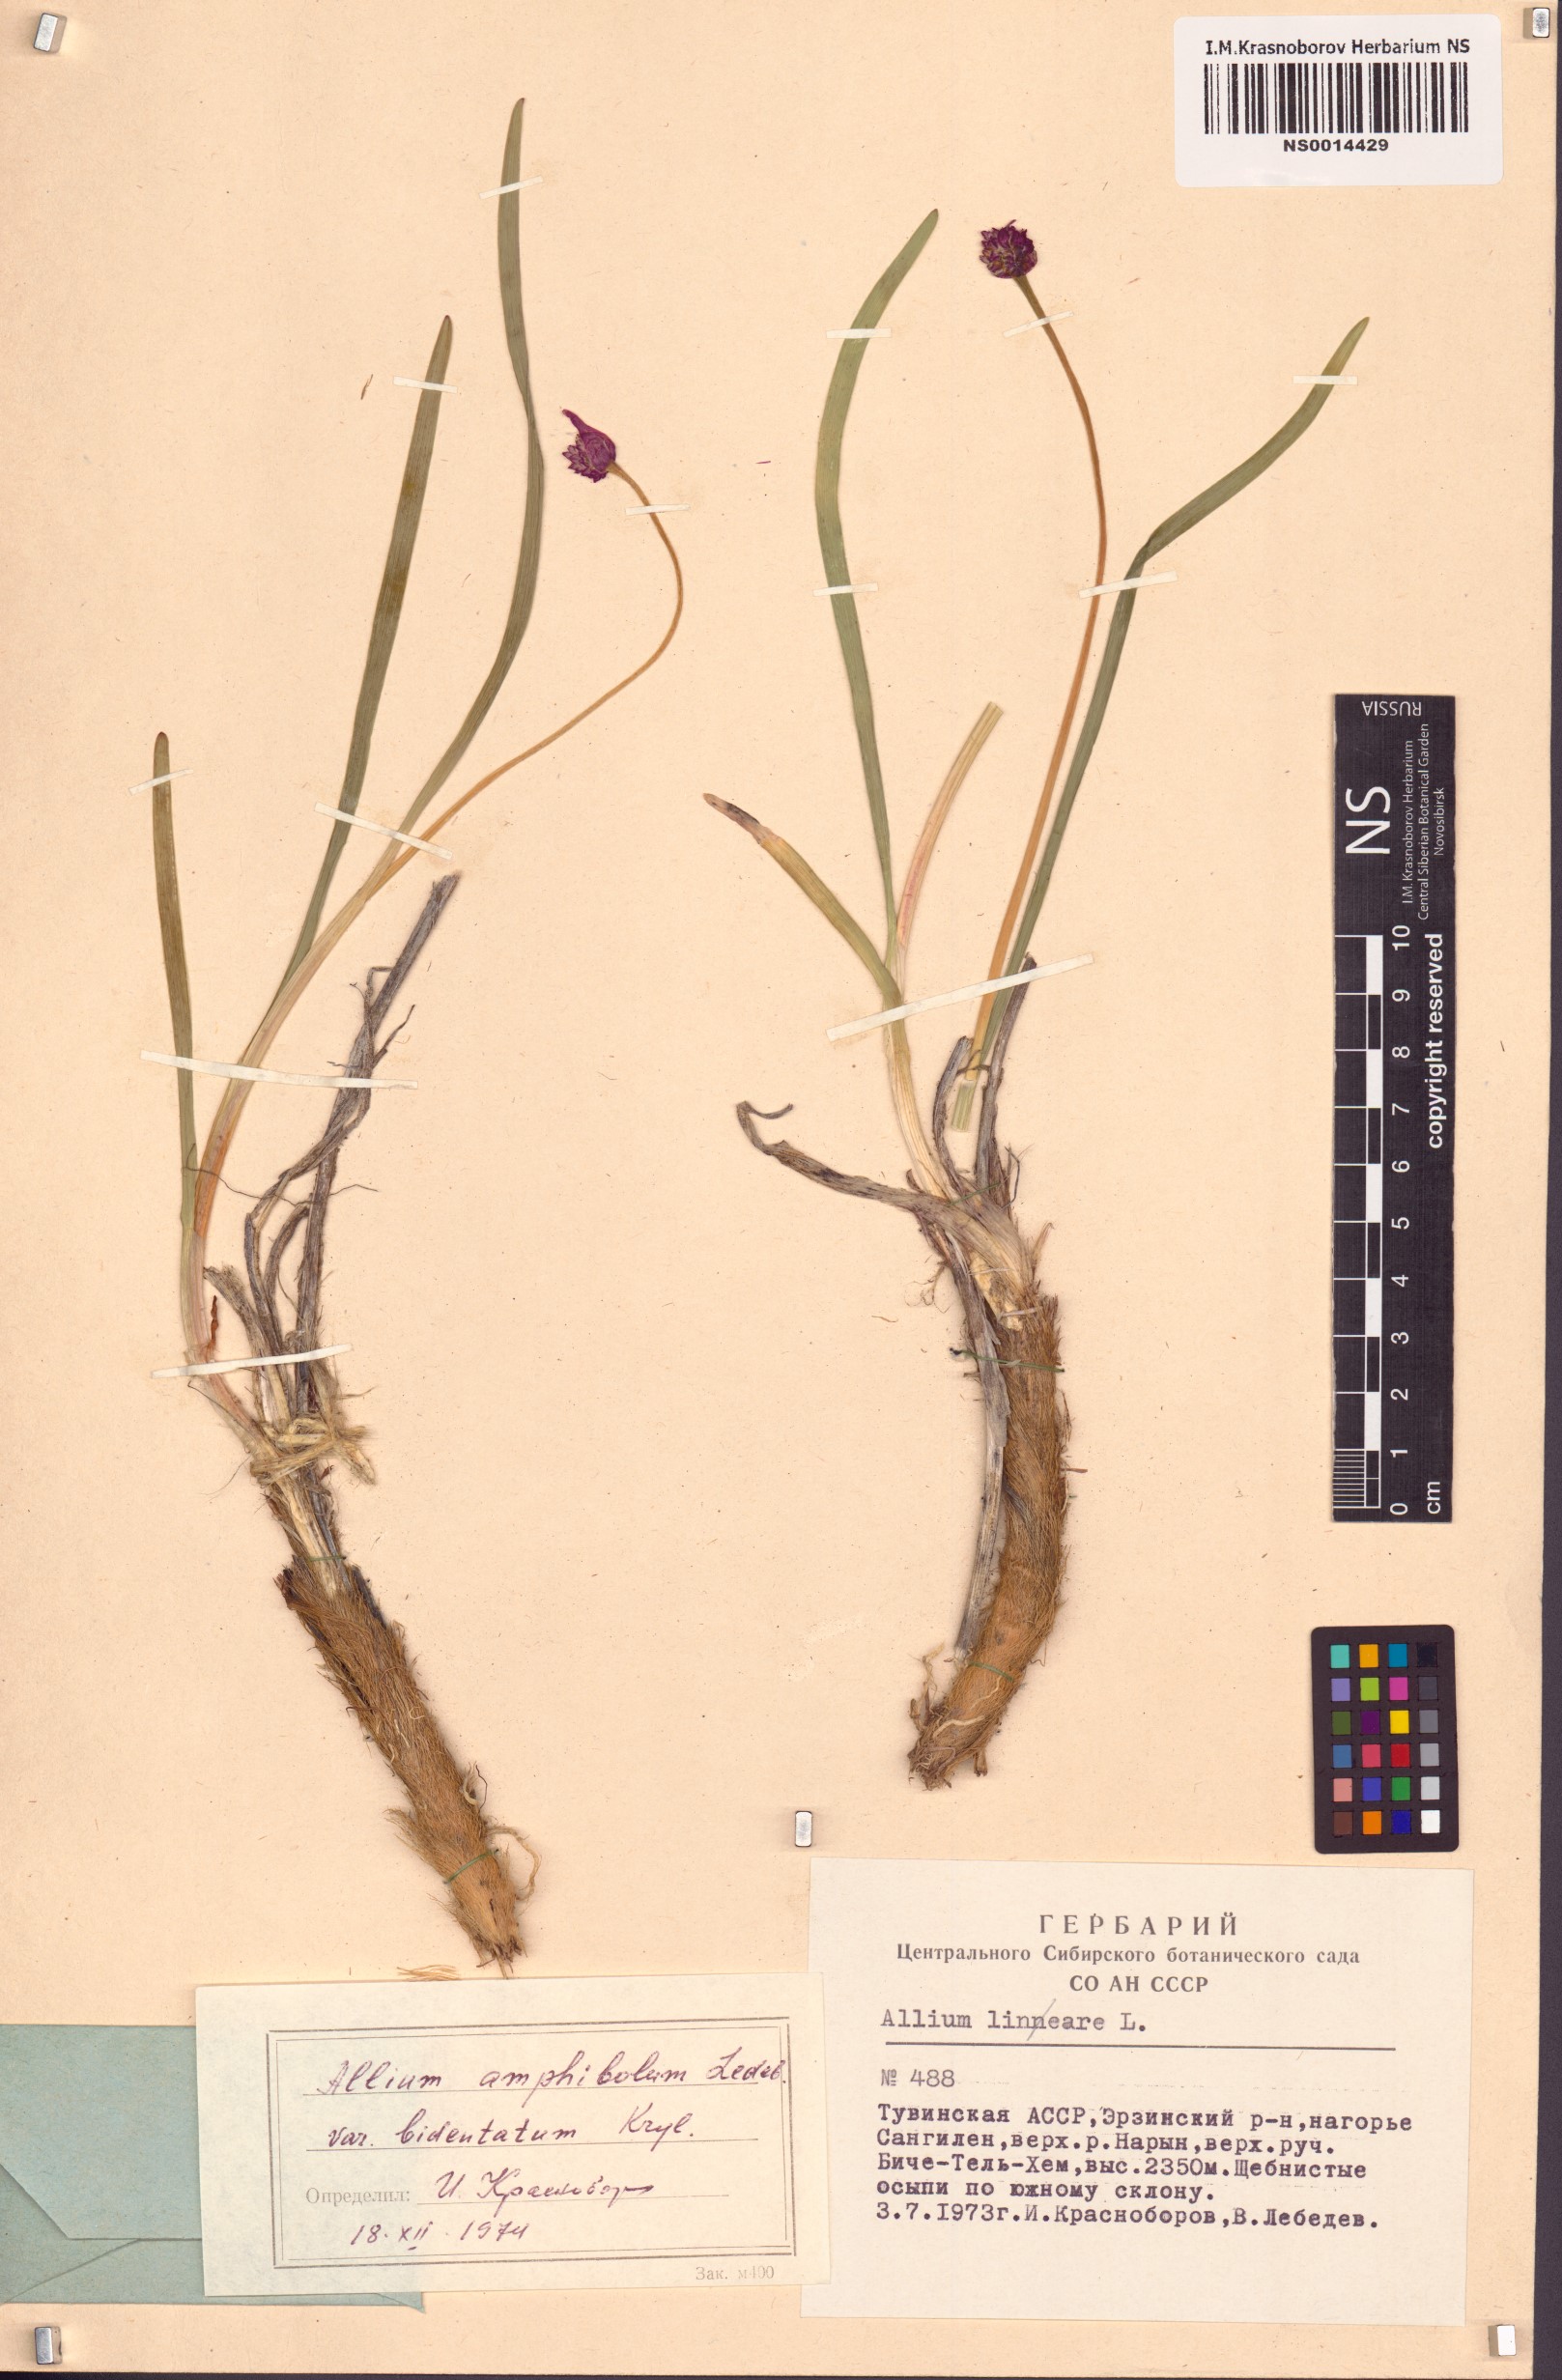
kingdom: Plantae
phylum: Tracheophyta
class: Liliopsida
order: Asparagales
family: Amaryllidaceae
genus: Allium
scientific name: Allium amphibolum
